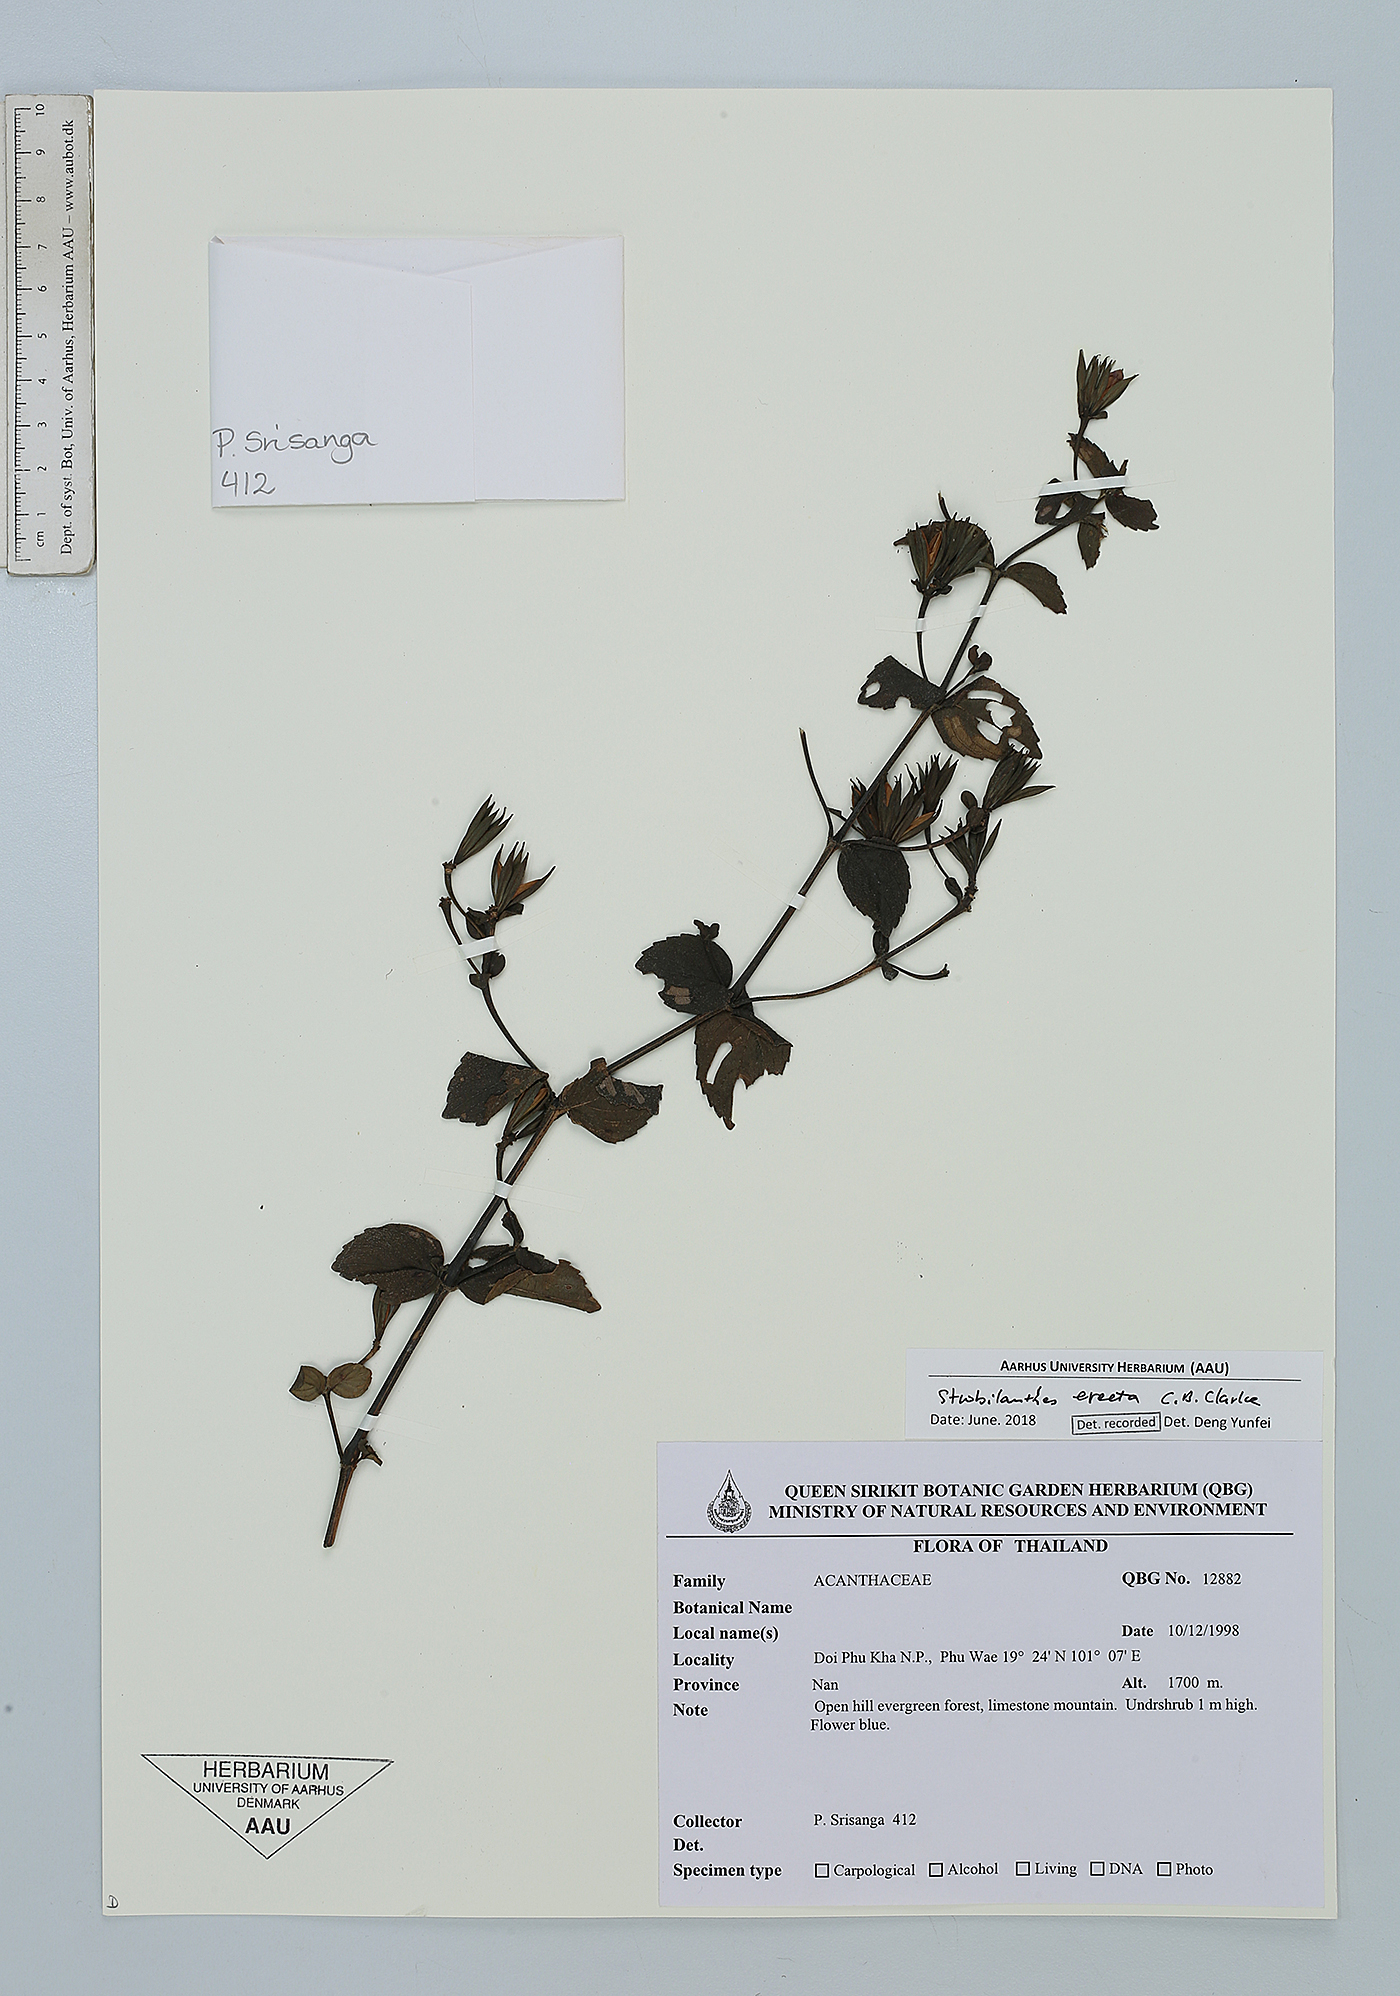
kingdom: Plantae
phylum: Tracheophyta
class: Magnoliopsida
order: Lamiales
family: Acanthaceae
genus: Strobilanthes
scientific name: Strobilanthes erecta
